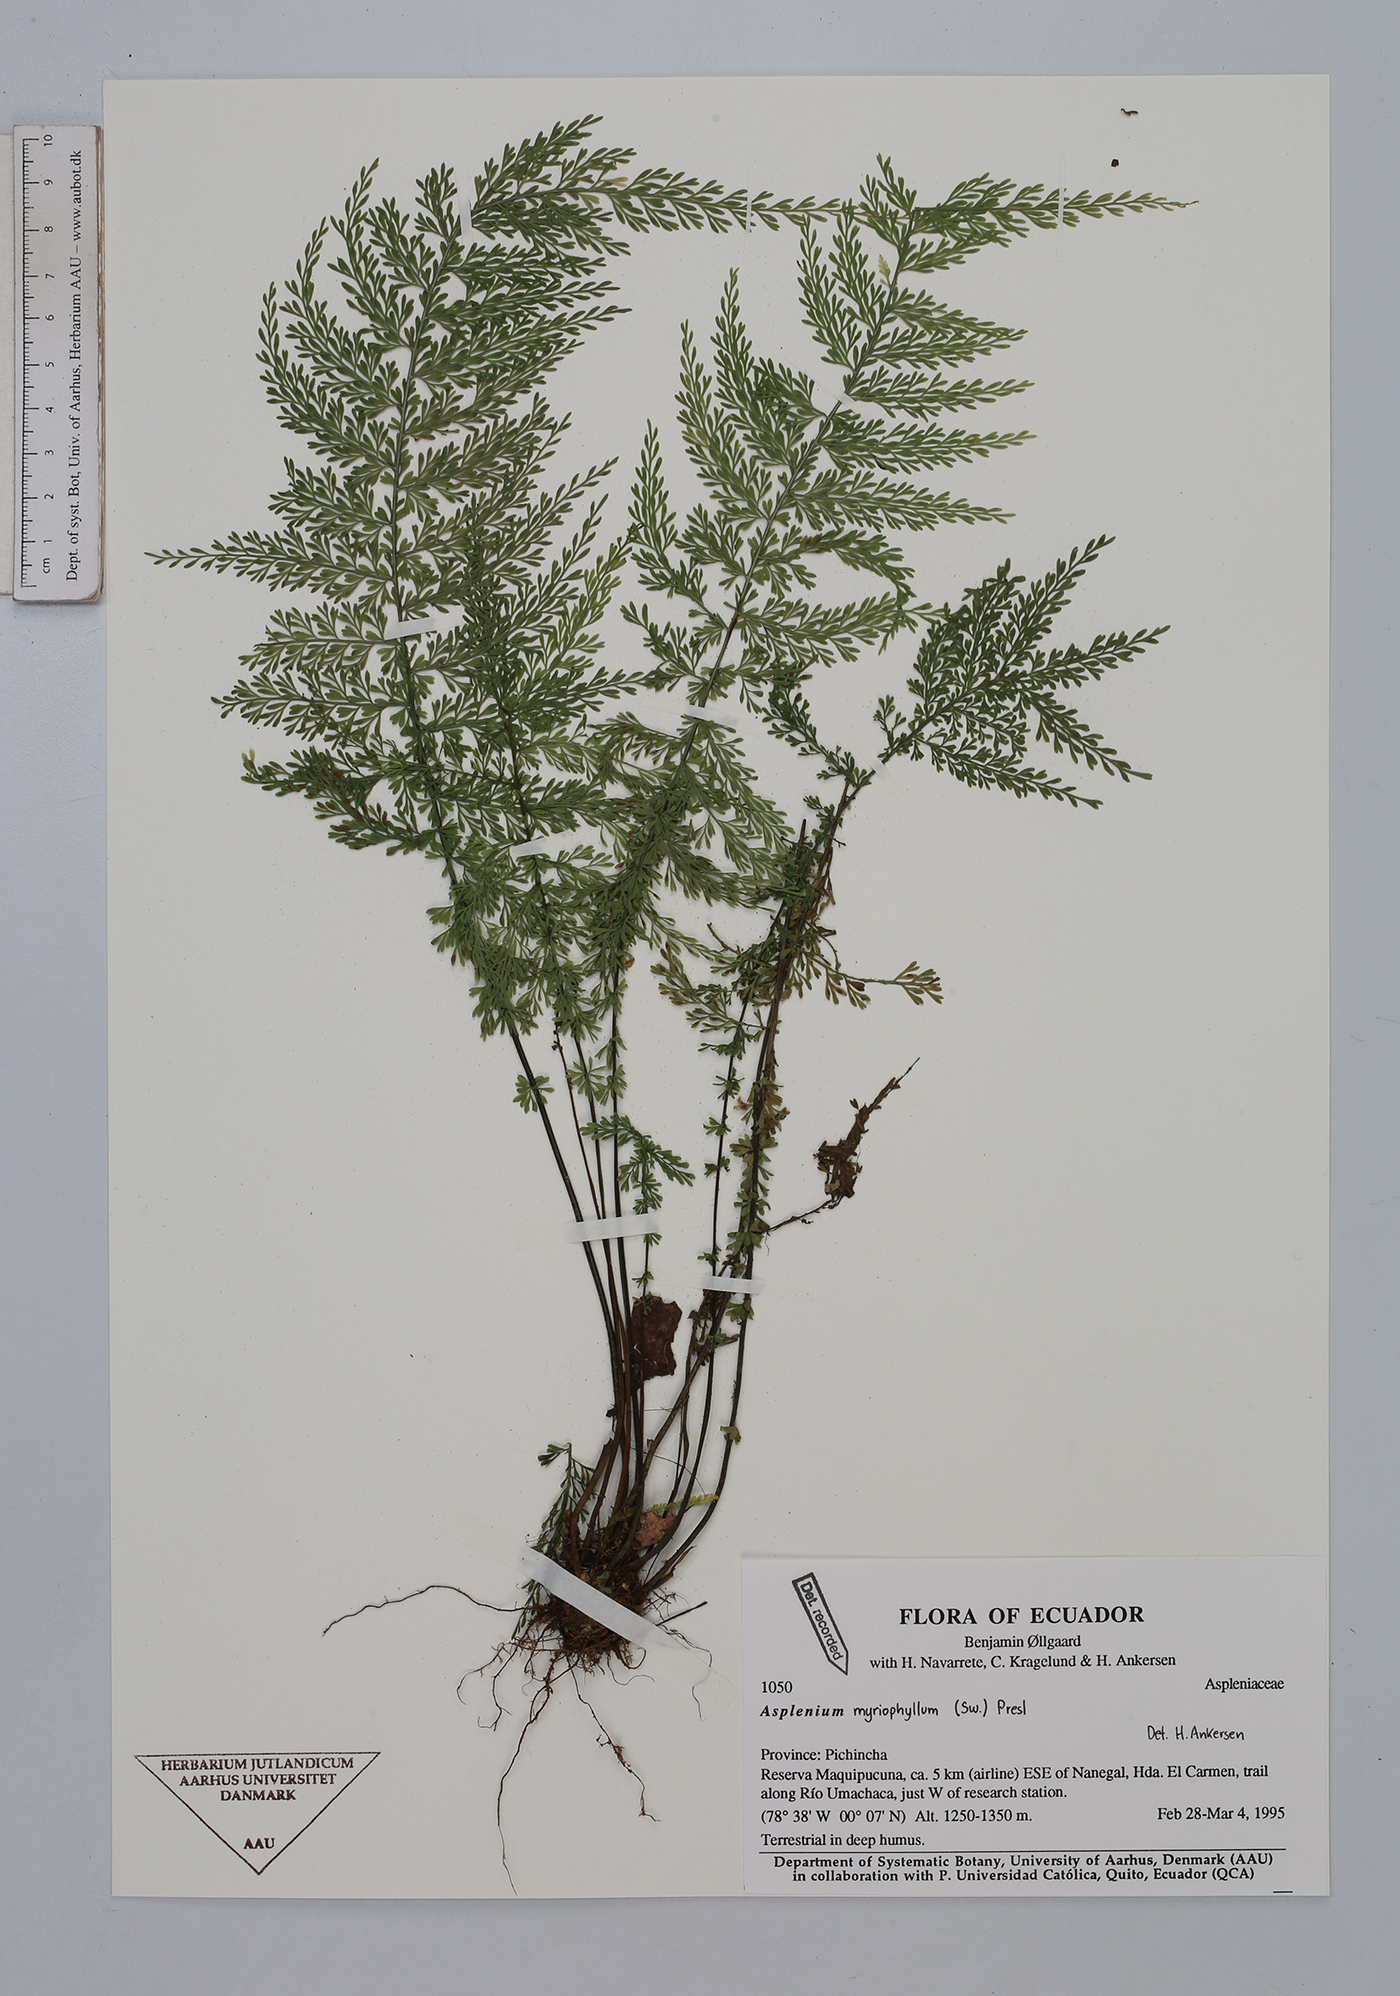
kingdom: Plantae
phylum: Tracheophyta
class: Polypodiopsida
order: Polypodiales
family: Aspleniaceae
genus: Asplenium
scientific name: Asplenium myriophyllum
